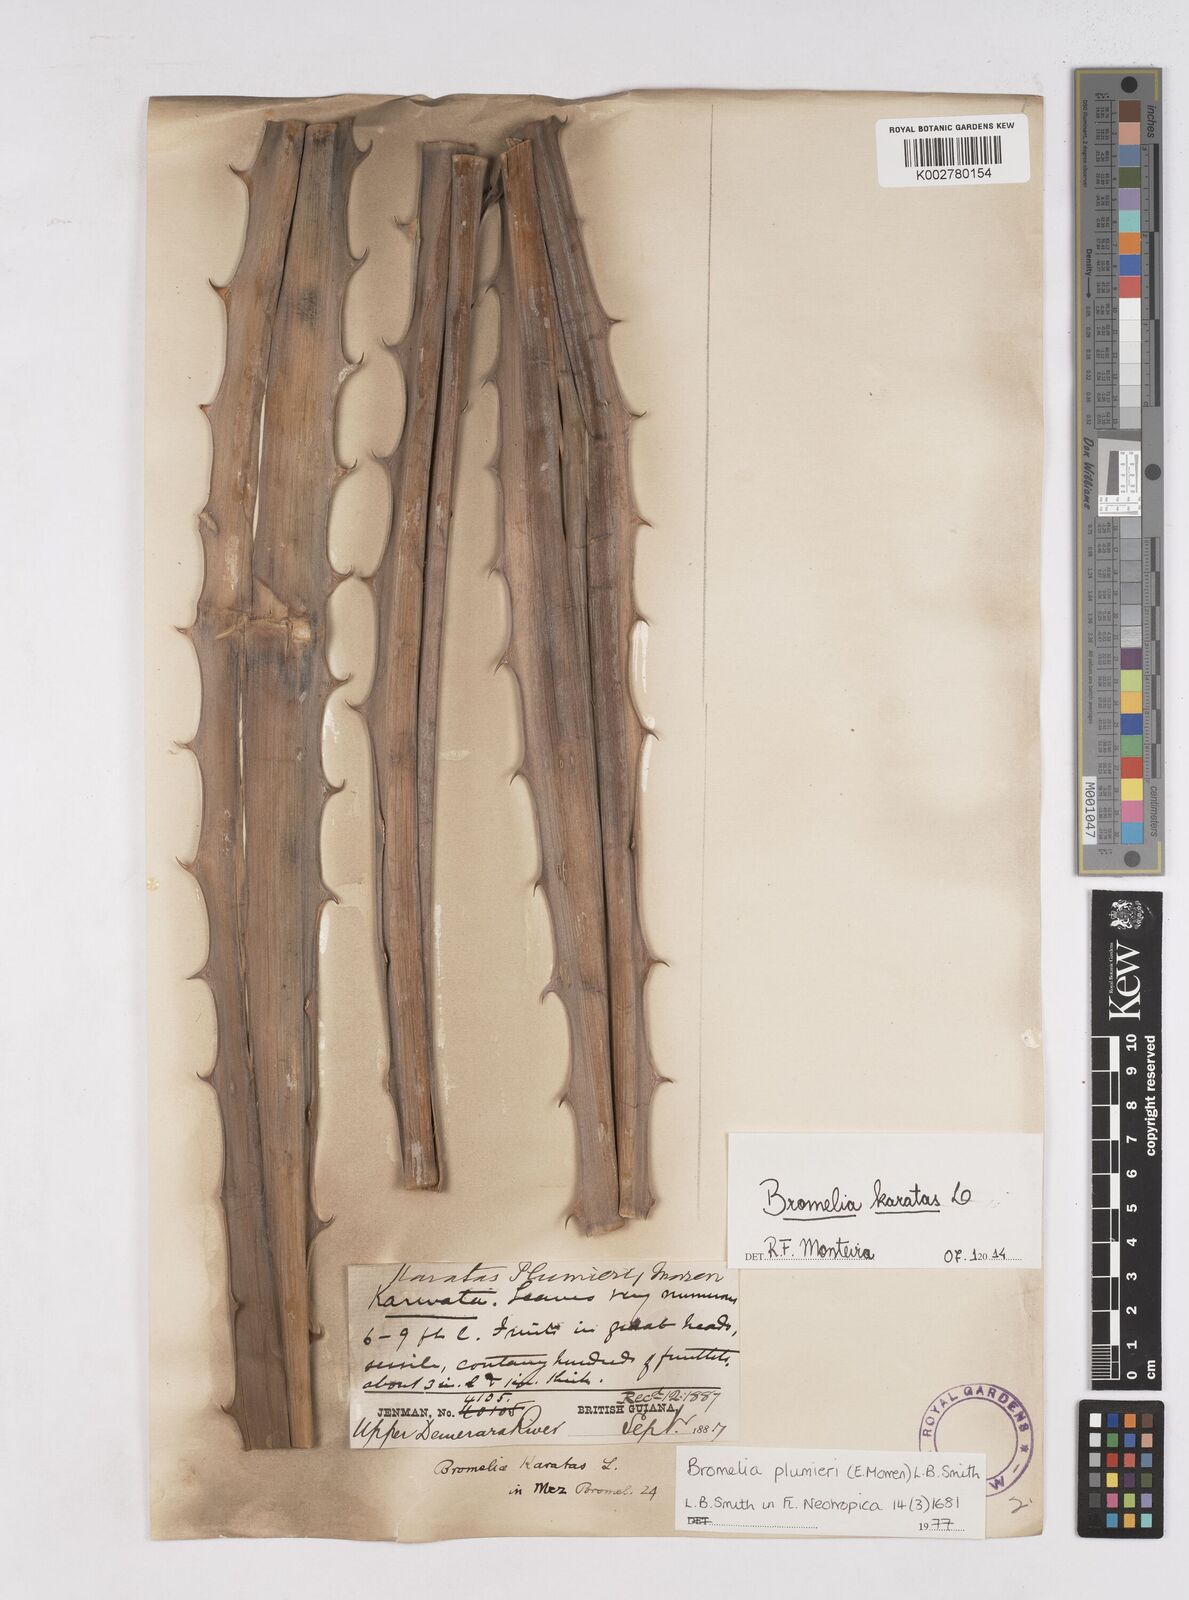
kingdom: Plantae
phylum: Tracheophyta
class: Liliopsida
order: Poales
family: Bromeliaceae
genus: Bromelia
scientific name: Bromelia karatas
